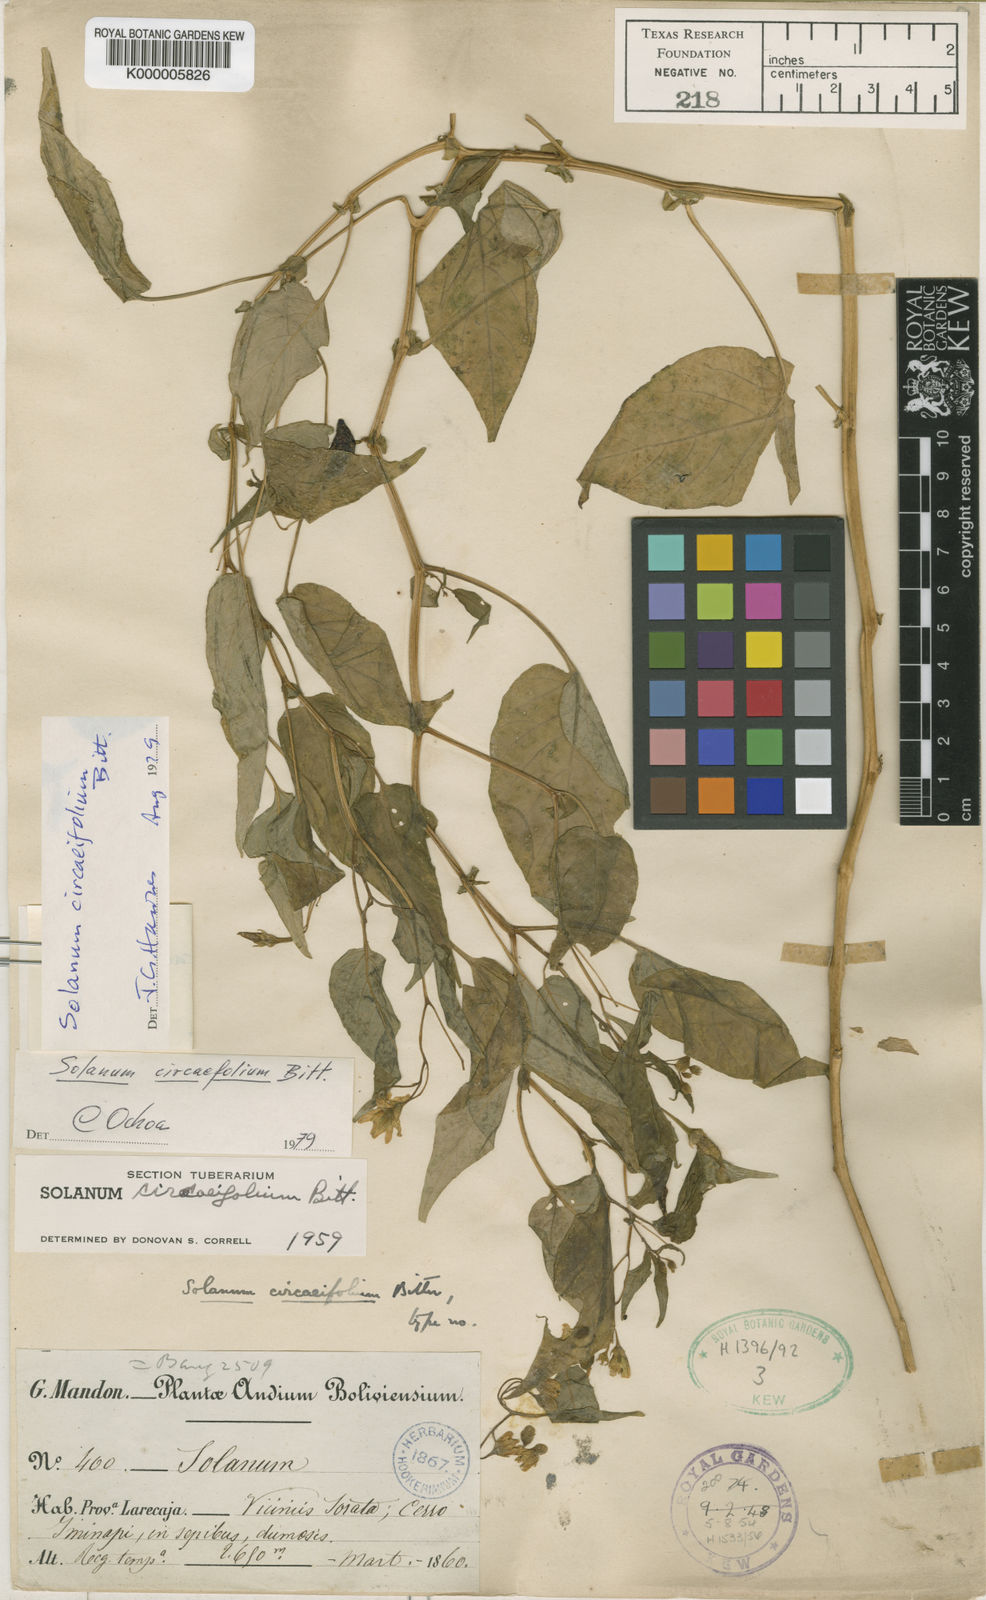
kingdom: Plantae
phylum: Tracheophyta
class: Magnoliopsida
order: Solanales
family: Solanaceae
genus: Solanum
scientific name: Solanum stipuloideum
